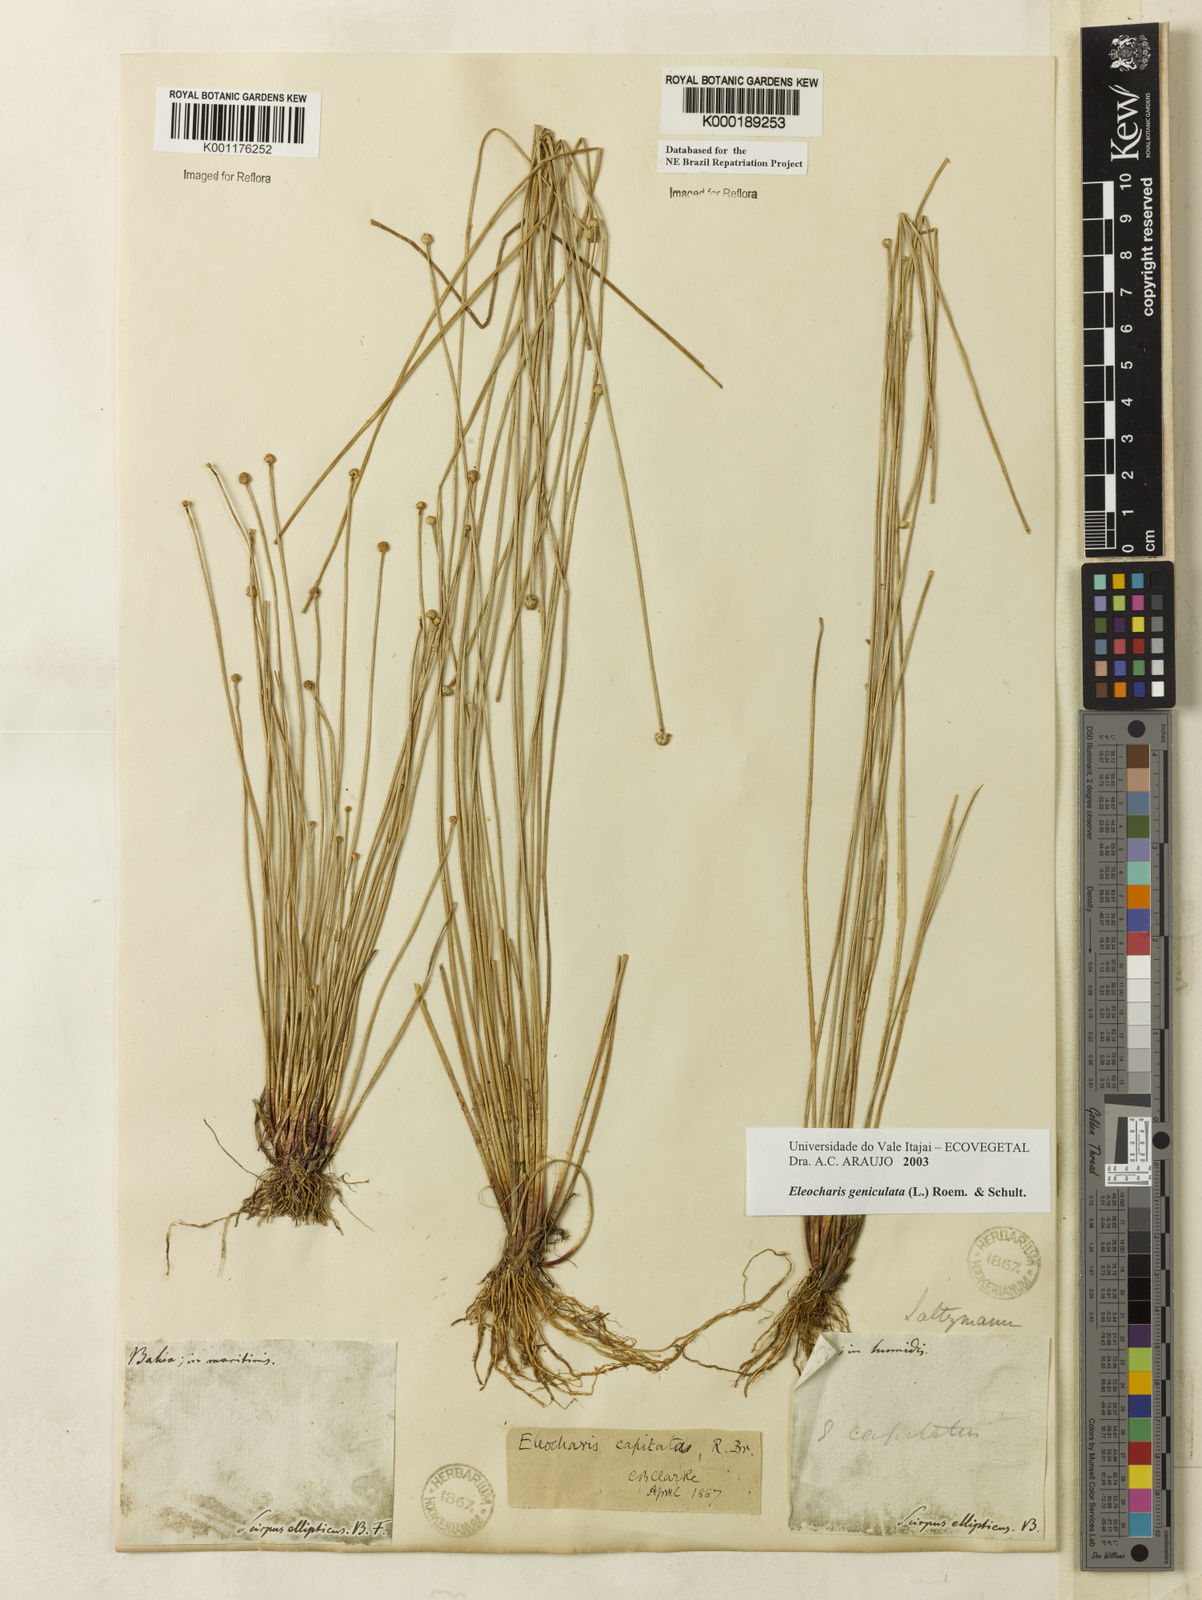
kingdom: Plantae
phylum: Tracheophyta
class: Liliopsida
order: Poales
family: Cyperaceae
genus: Eleocharis
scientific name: Eleocharis geniculata
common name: Canada spikesedge
